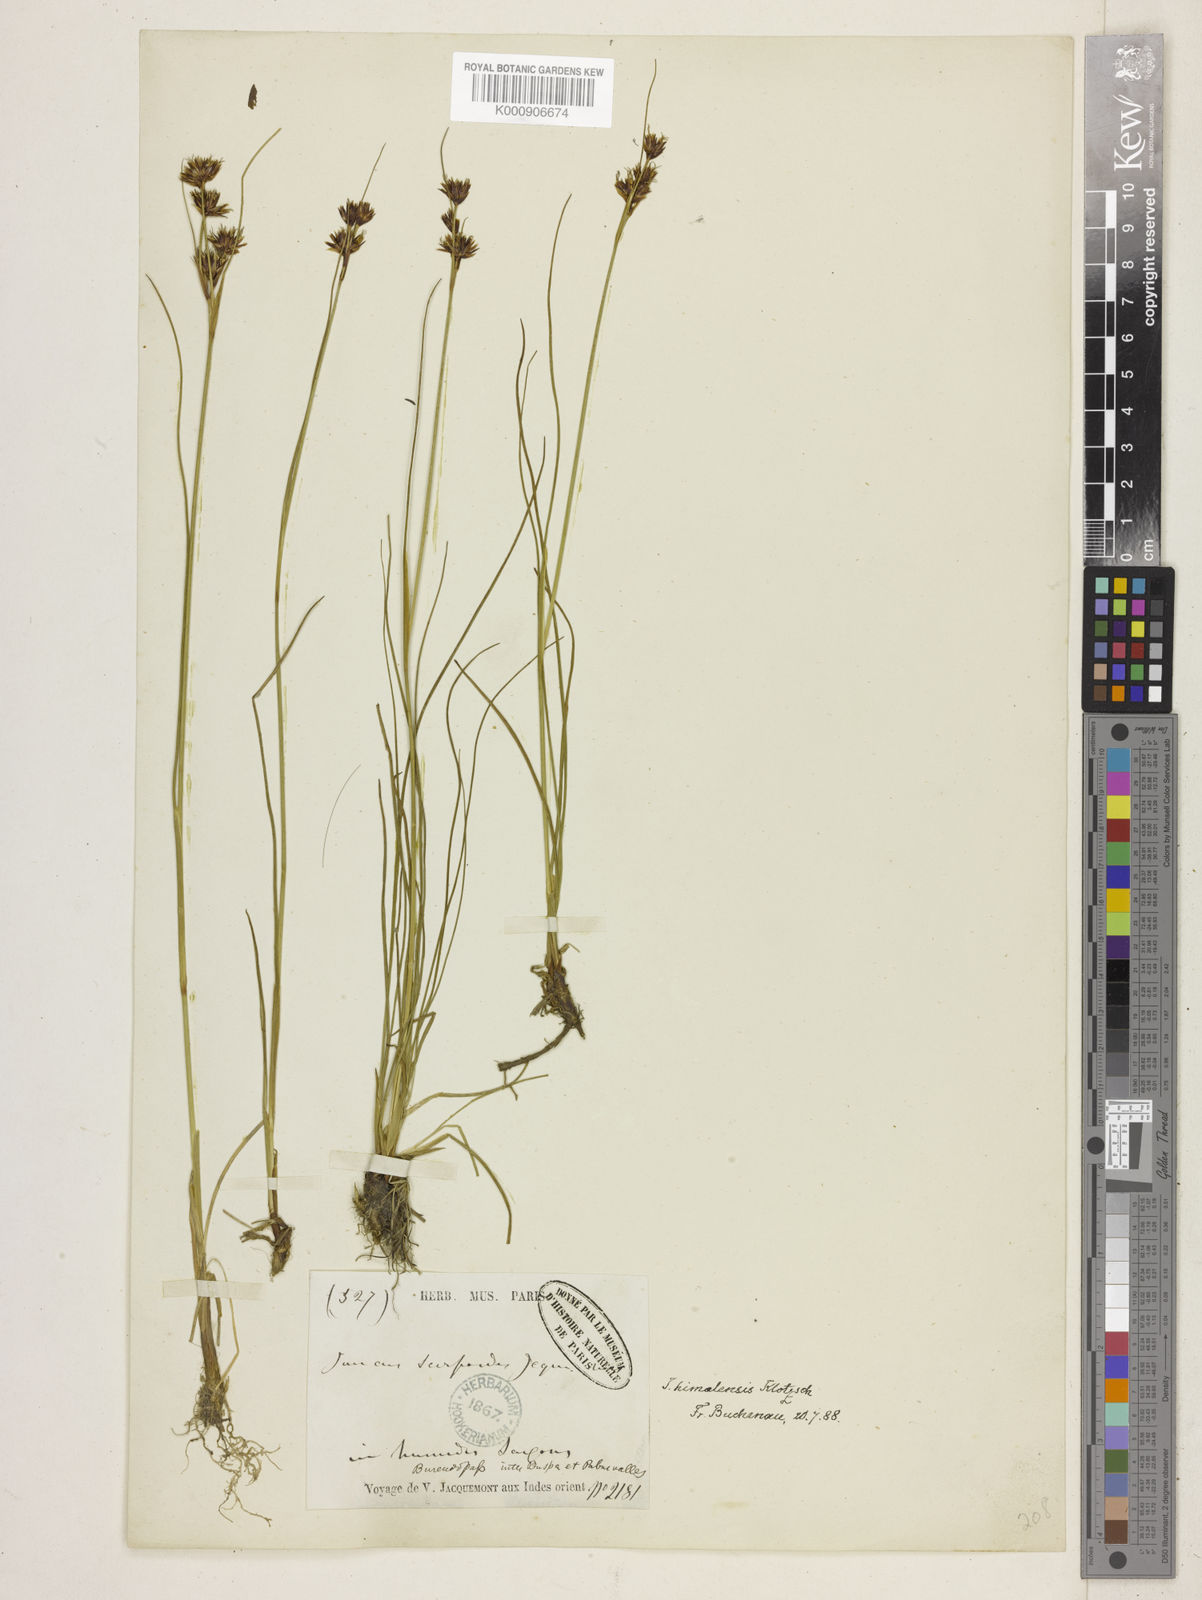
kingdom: Plantae
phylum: Tracheophyta
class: Liliopsida
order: Poales
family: Juncaceae
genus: Juncus
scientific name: Juncus himalensis
